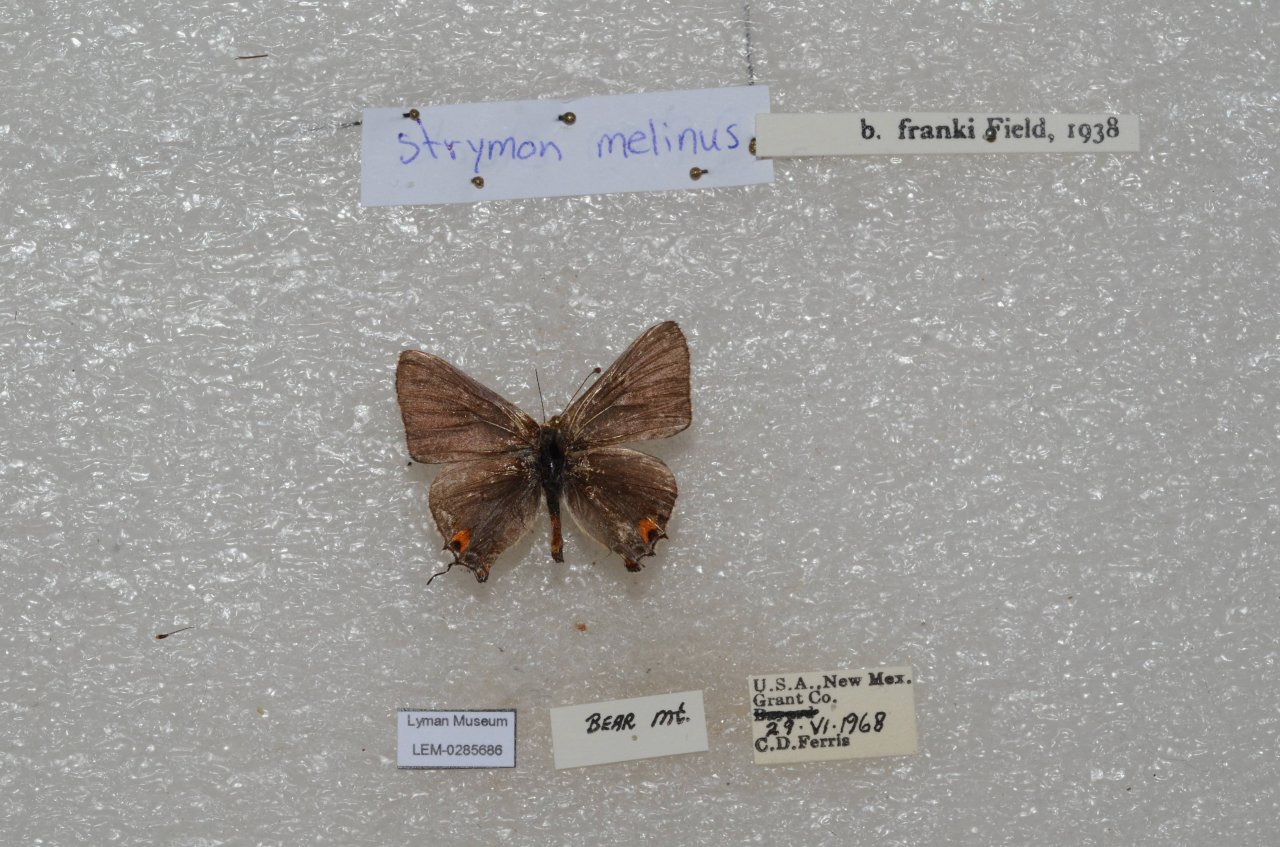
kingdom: Animalia
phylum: Arthropoda
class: Insecta
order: Lepidoptera
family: Lycaenidae
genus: Strymon
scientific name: Strymon melinus
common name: Gray Hairstreak
